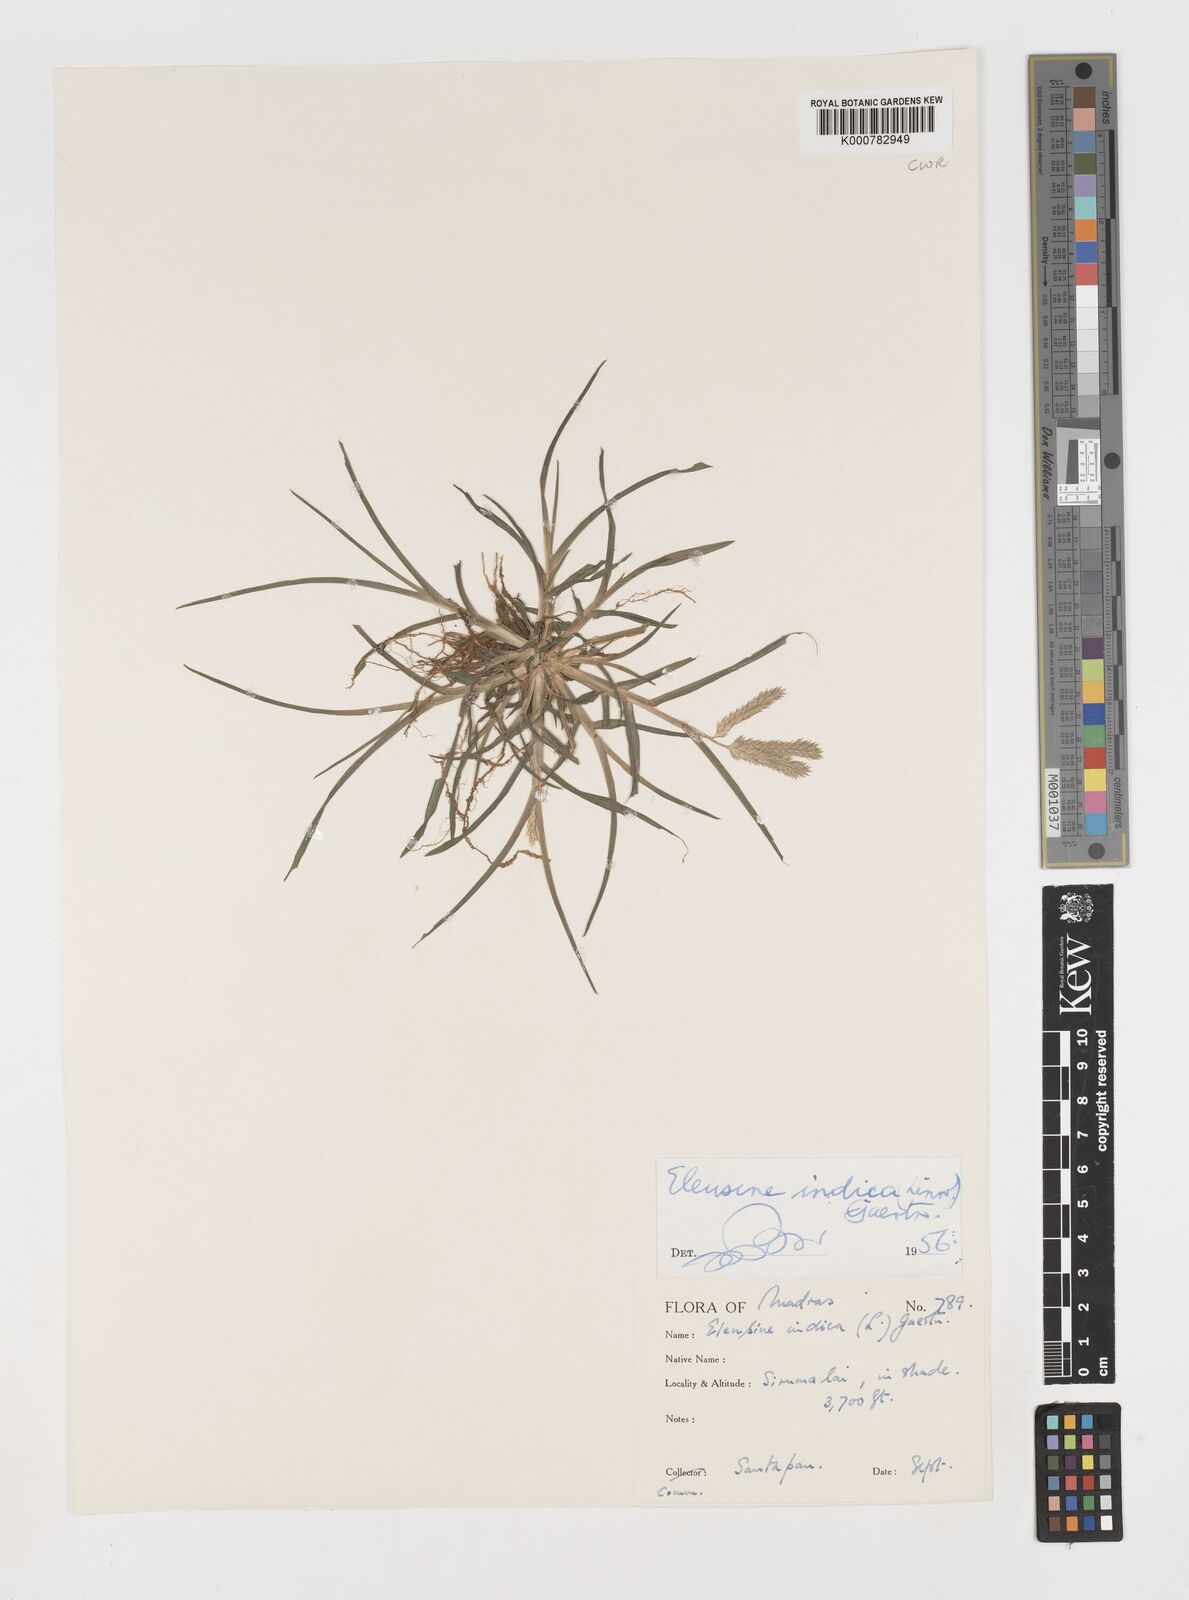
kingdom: Plantae
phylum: Tracheophyta
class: Liliopsida
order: Poales
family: Poaceae
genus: Eleusine
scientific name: Eleusine indica
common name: Yard-grass
